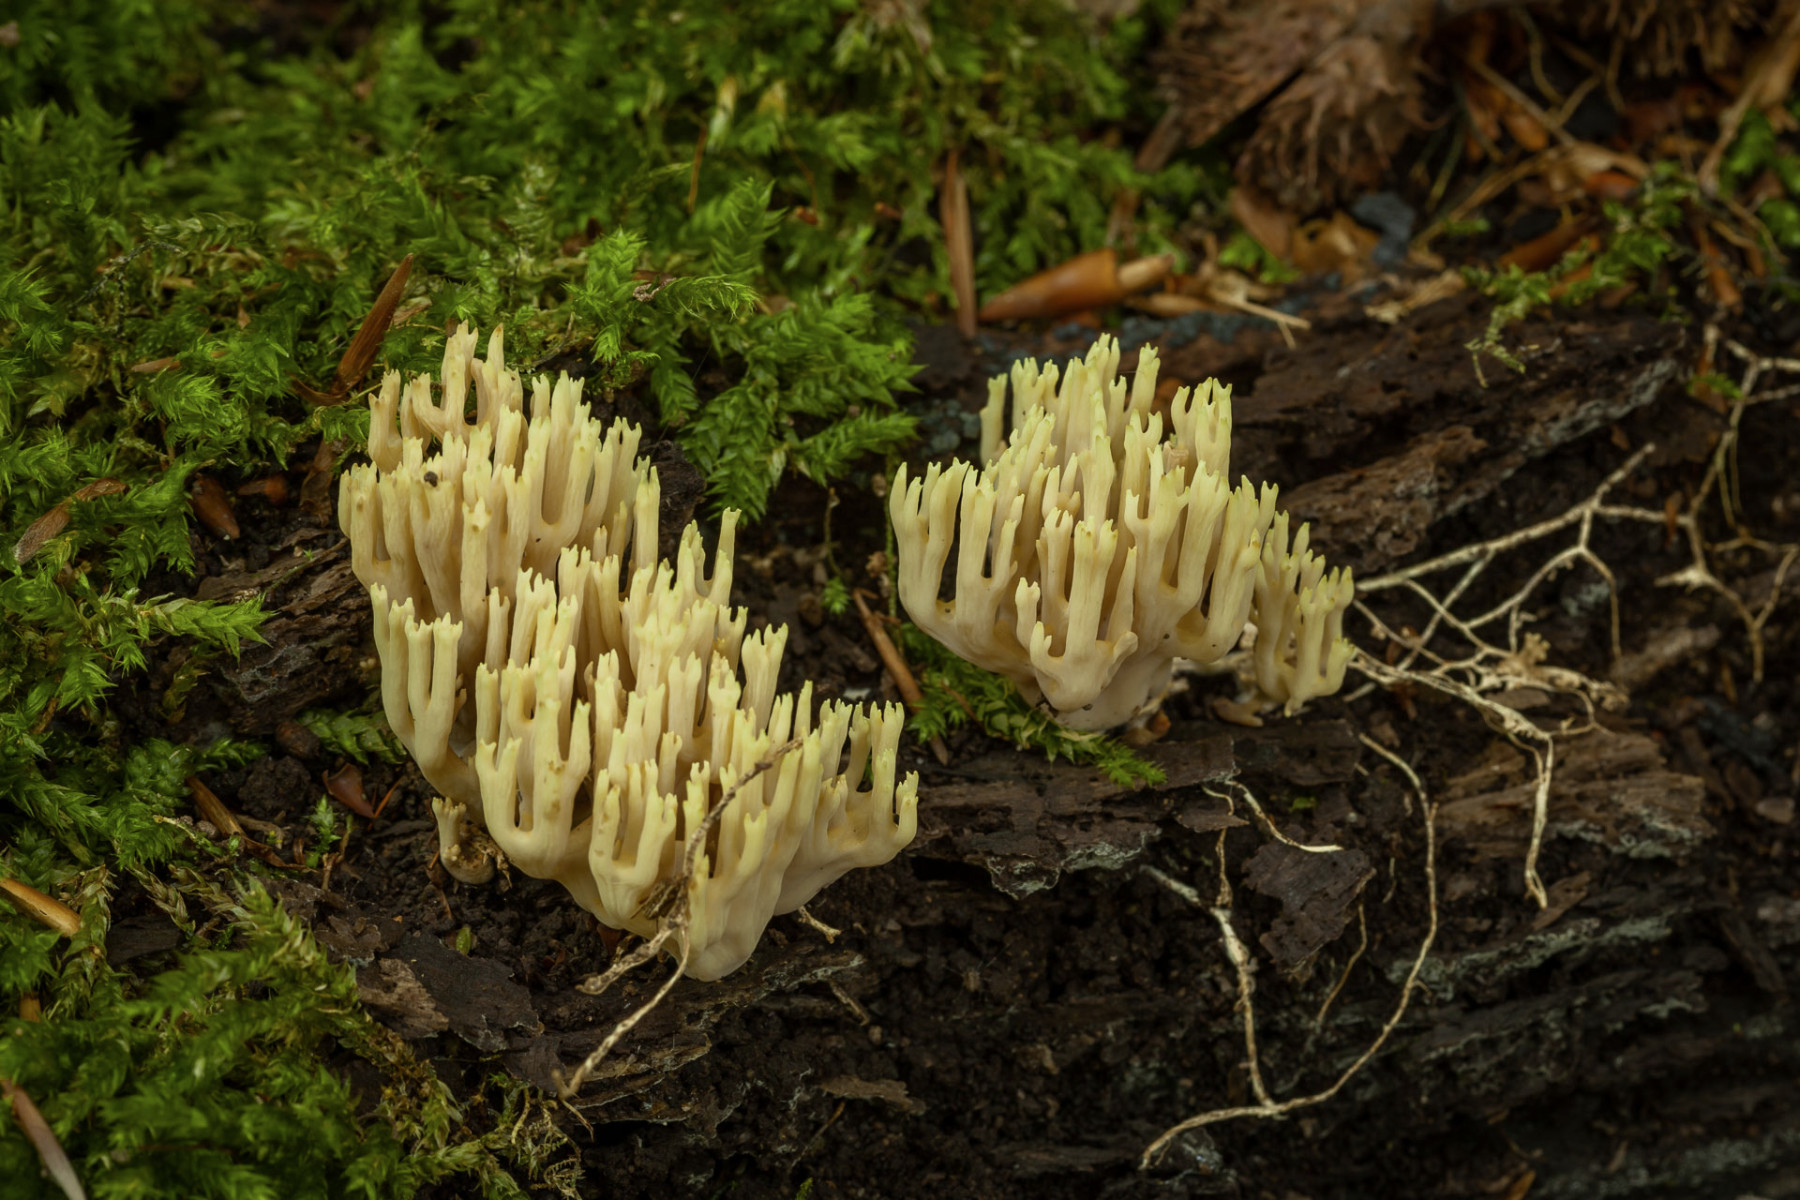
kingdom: Fungi
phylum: Basidiomycota
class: Agaricomycetes
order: Gomphales
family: Gomphaceae
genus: Ramaria
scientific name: Ramaria stricta
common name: rank koralsvamp
